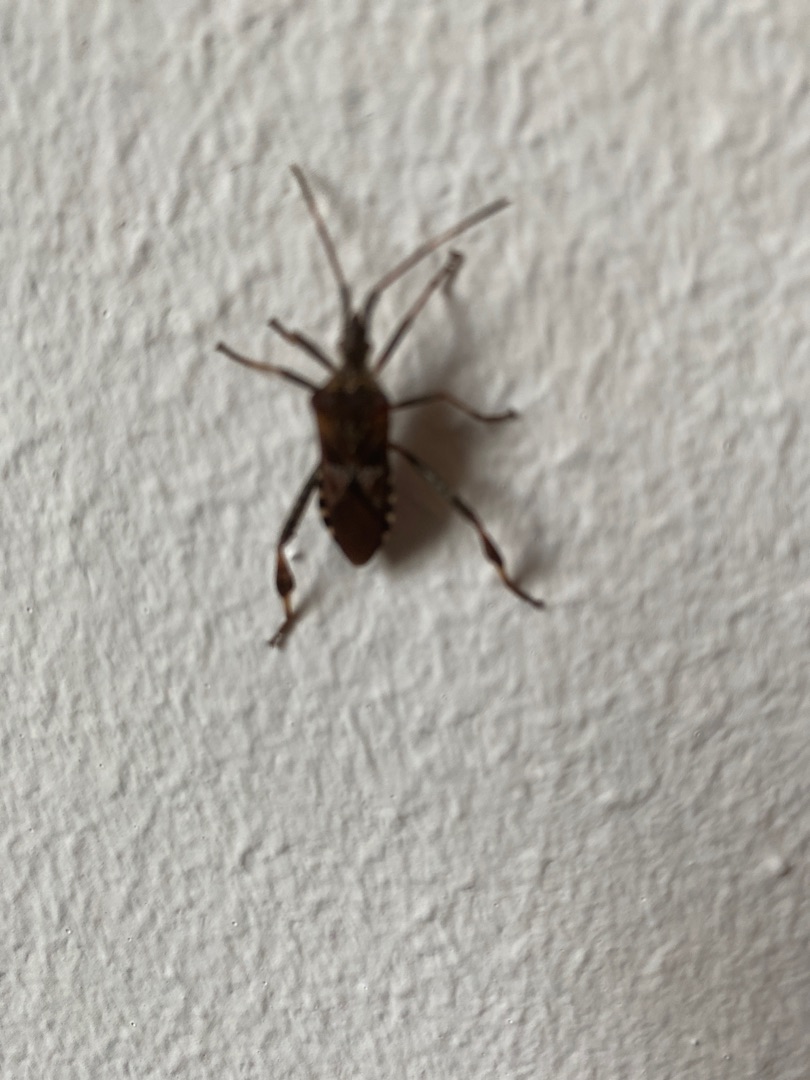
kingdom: Animalia
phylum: Arthropoda
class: Insecta
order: Hemiptera
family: Coreidae
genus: Leptoglossus
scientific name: Leptoglossus occidentalis
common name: Amerikansk fyrretæge
